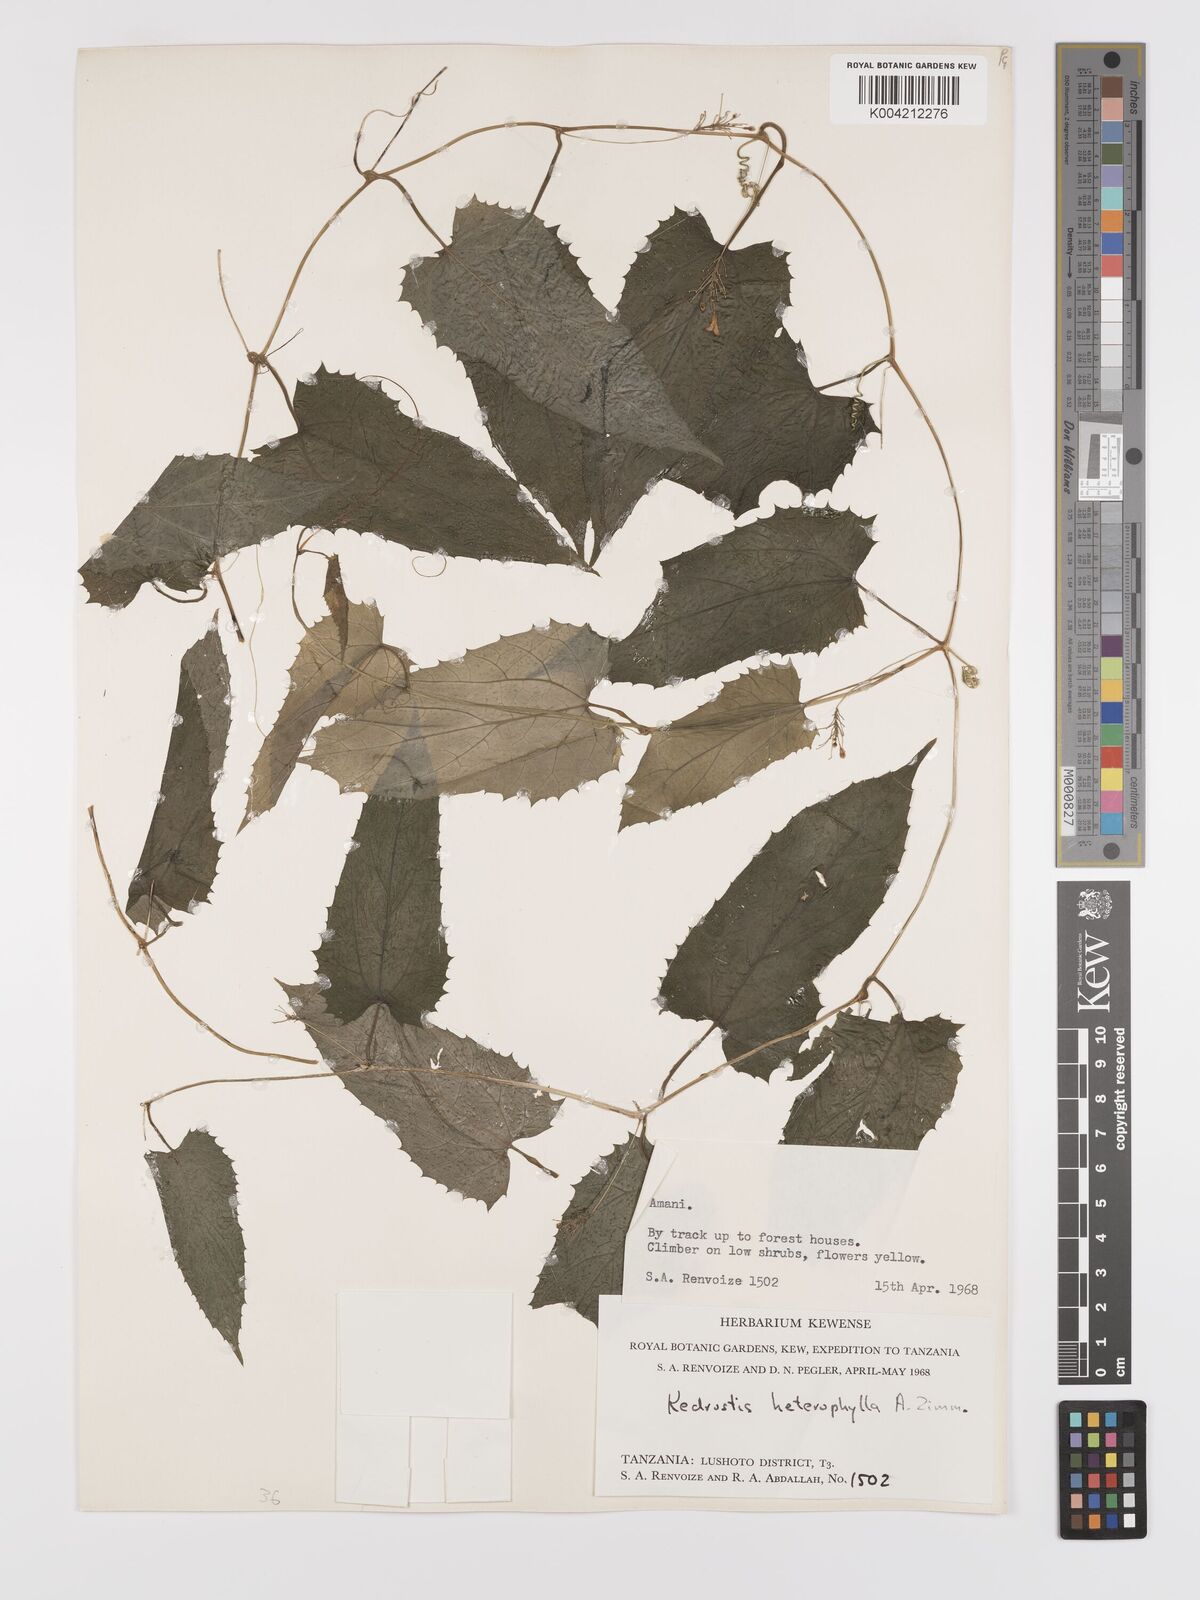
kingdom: Plantae
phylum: Tracheophyta
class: Magnoliopsida
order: Cucurbitales
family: Cucurbitaceae
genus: Kedrostis
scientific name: Kedrostis heterophylla
